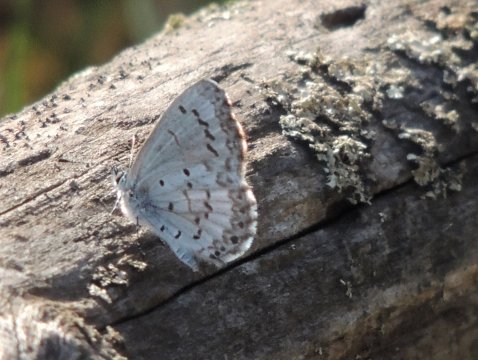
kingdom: Animalia
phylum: Arthropoda
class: Insecta
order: Lepidoptera
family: Lycaenidae
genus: Celastrina
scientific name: Celastrina lucia
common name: Northern Spring Azure
